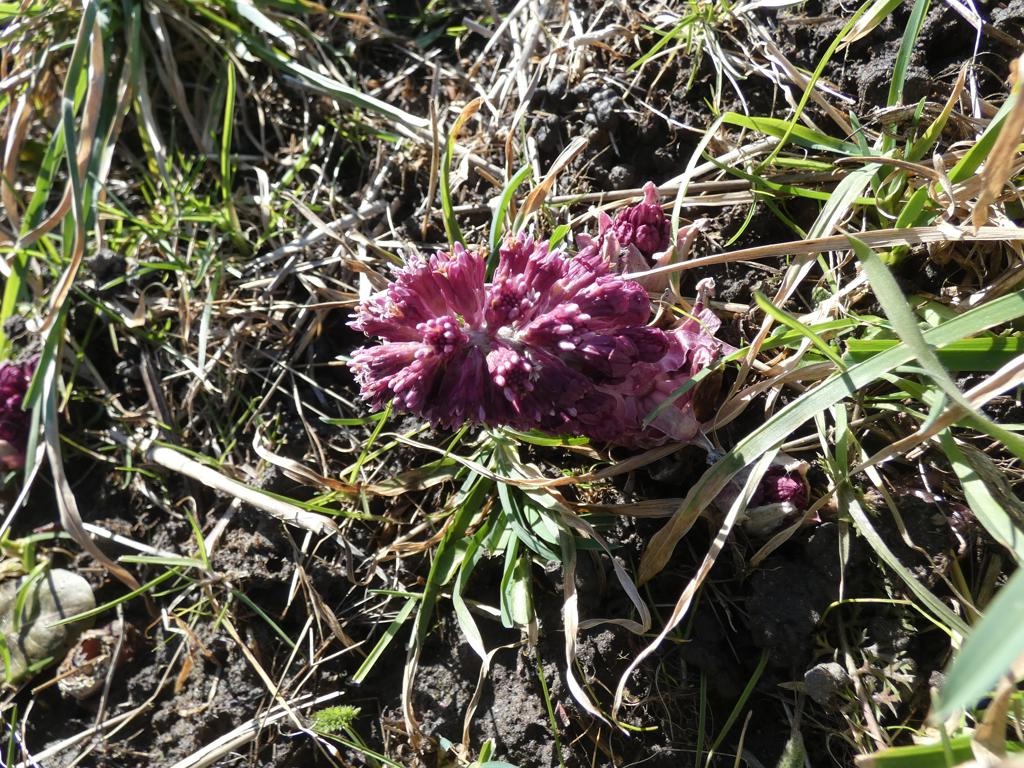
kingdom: Plantae
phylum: Tracheophyta
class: Magnoliopsida
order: Asterales
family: Asteraceae
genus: Petasites
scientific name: Petasites hybridus
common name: Rød hestehov
